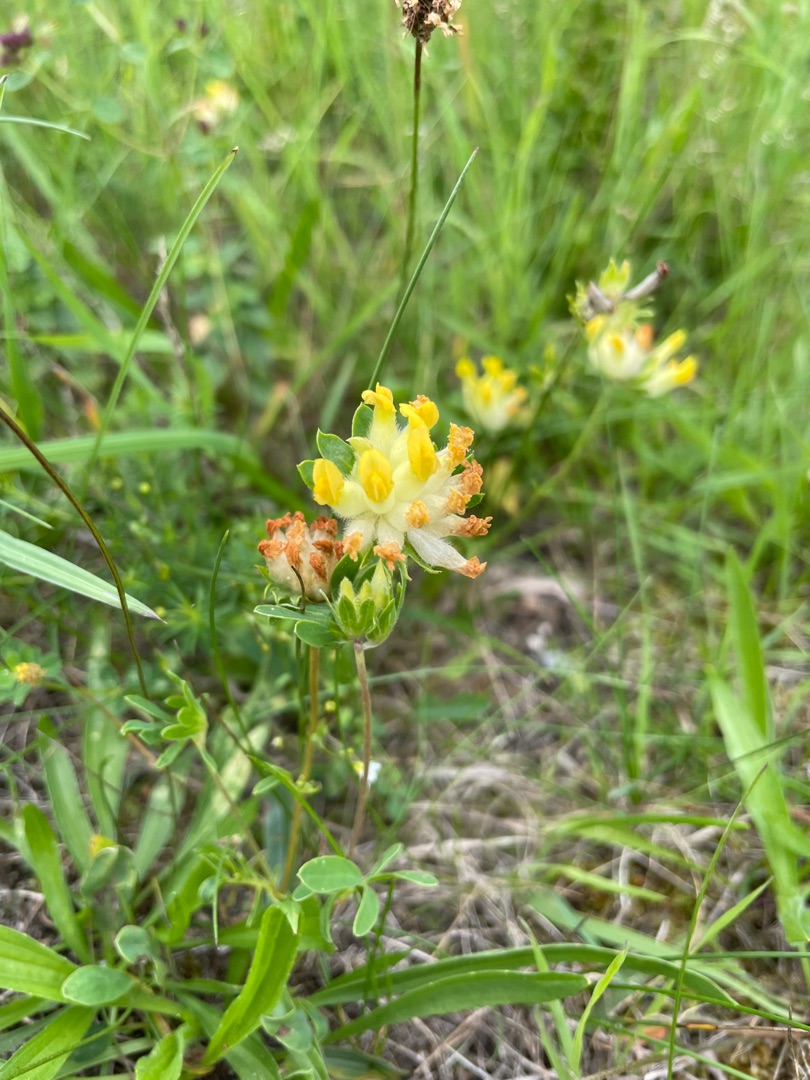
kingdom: Plantae
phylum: Tracheophyta
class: Magnoliopsida
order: Fabales
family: Fabaceae
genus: Anthyllis
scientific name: Anthyllis vulneraria
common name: Rundbælg
